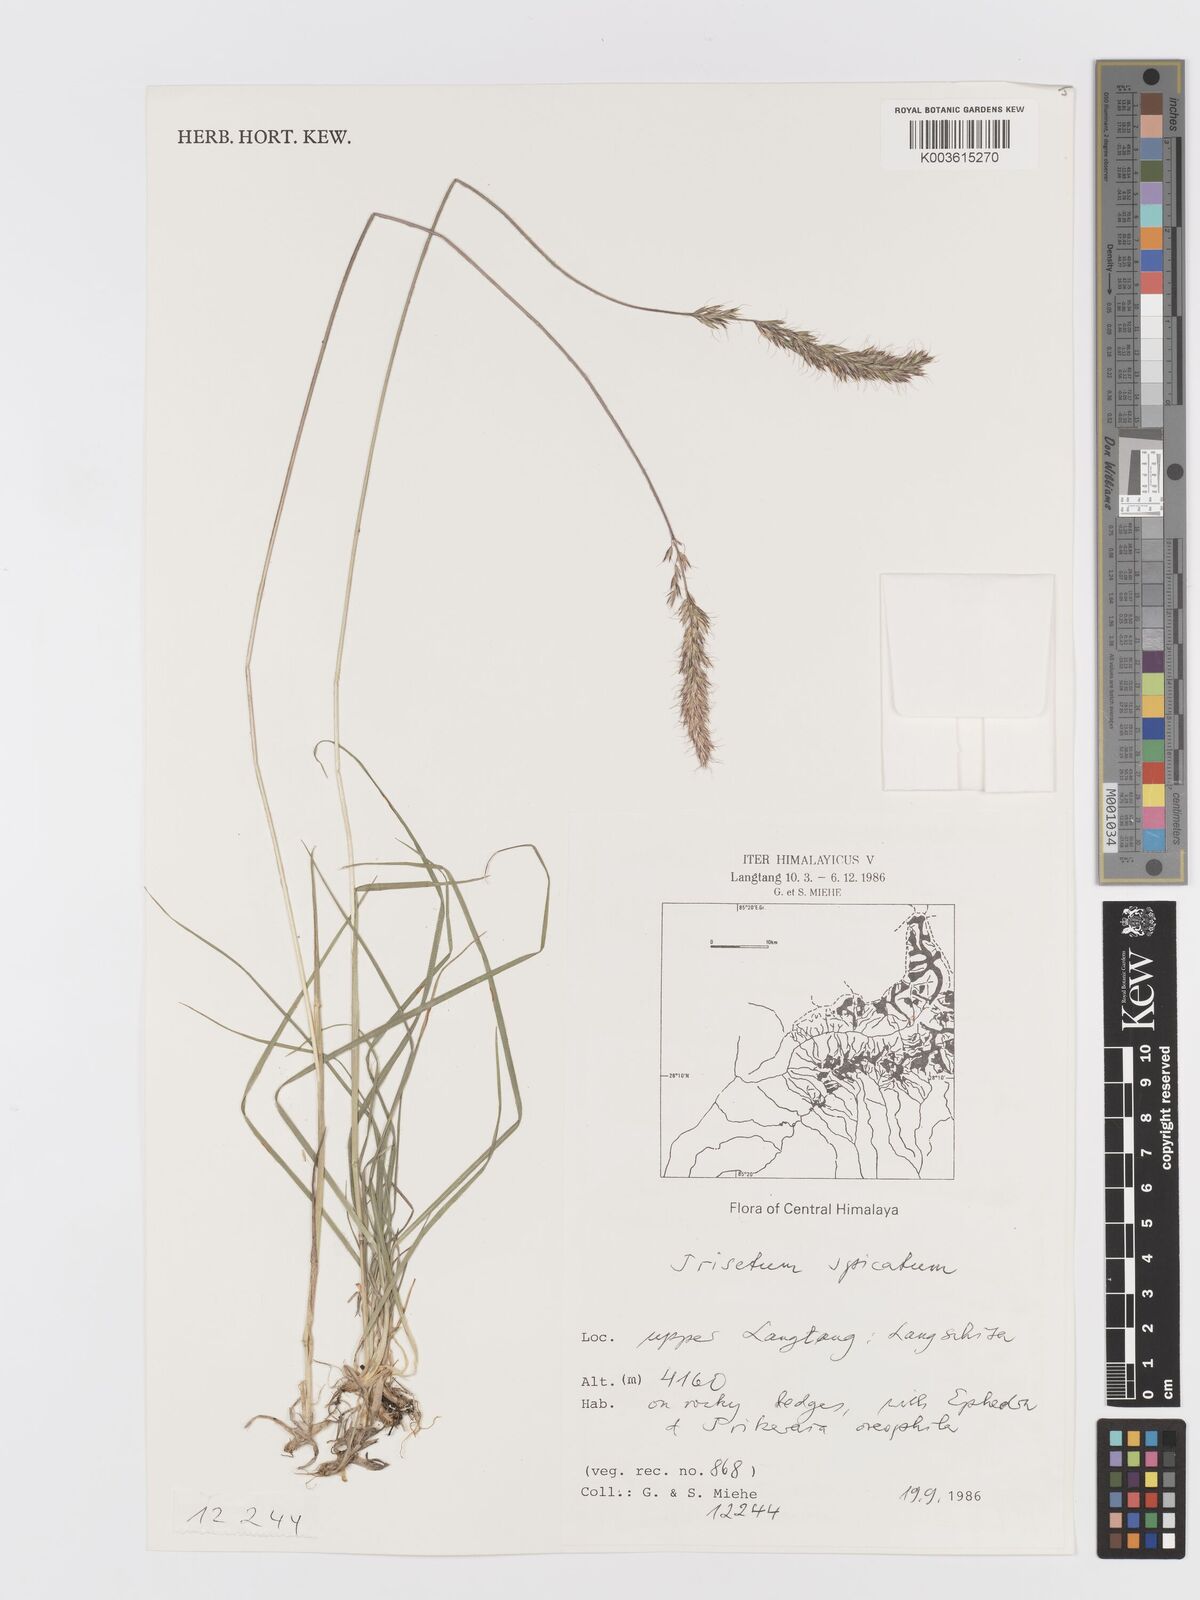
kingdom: Plantae
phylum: Tracheophyta
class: Liliopsida
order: Poales
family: Poaceae
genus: Koeleria
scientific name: Koeleria spicata
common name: Mountain trisetum
